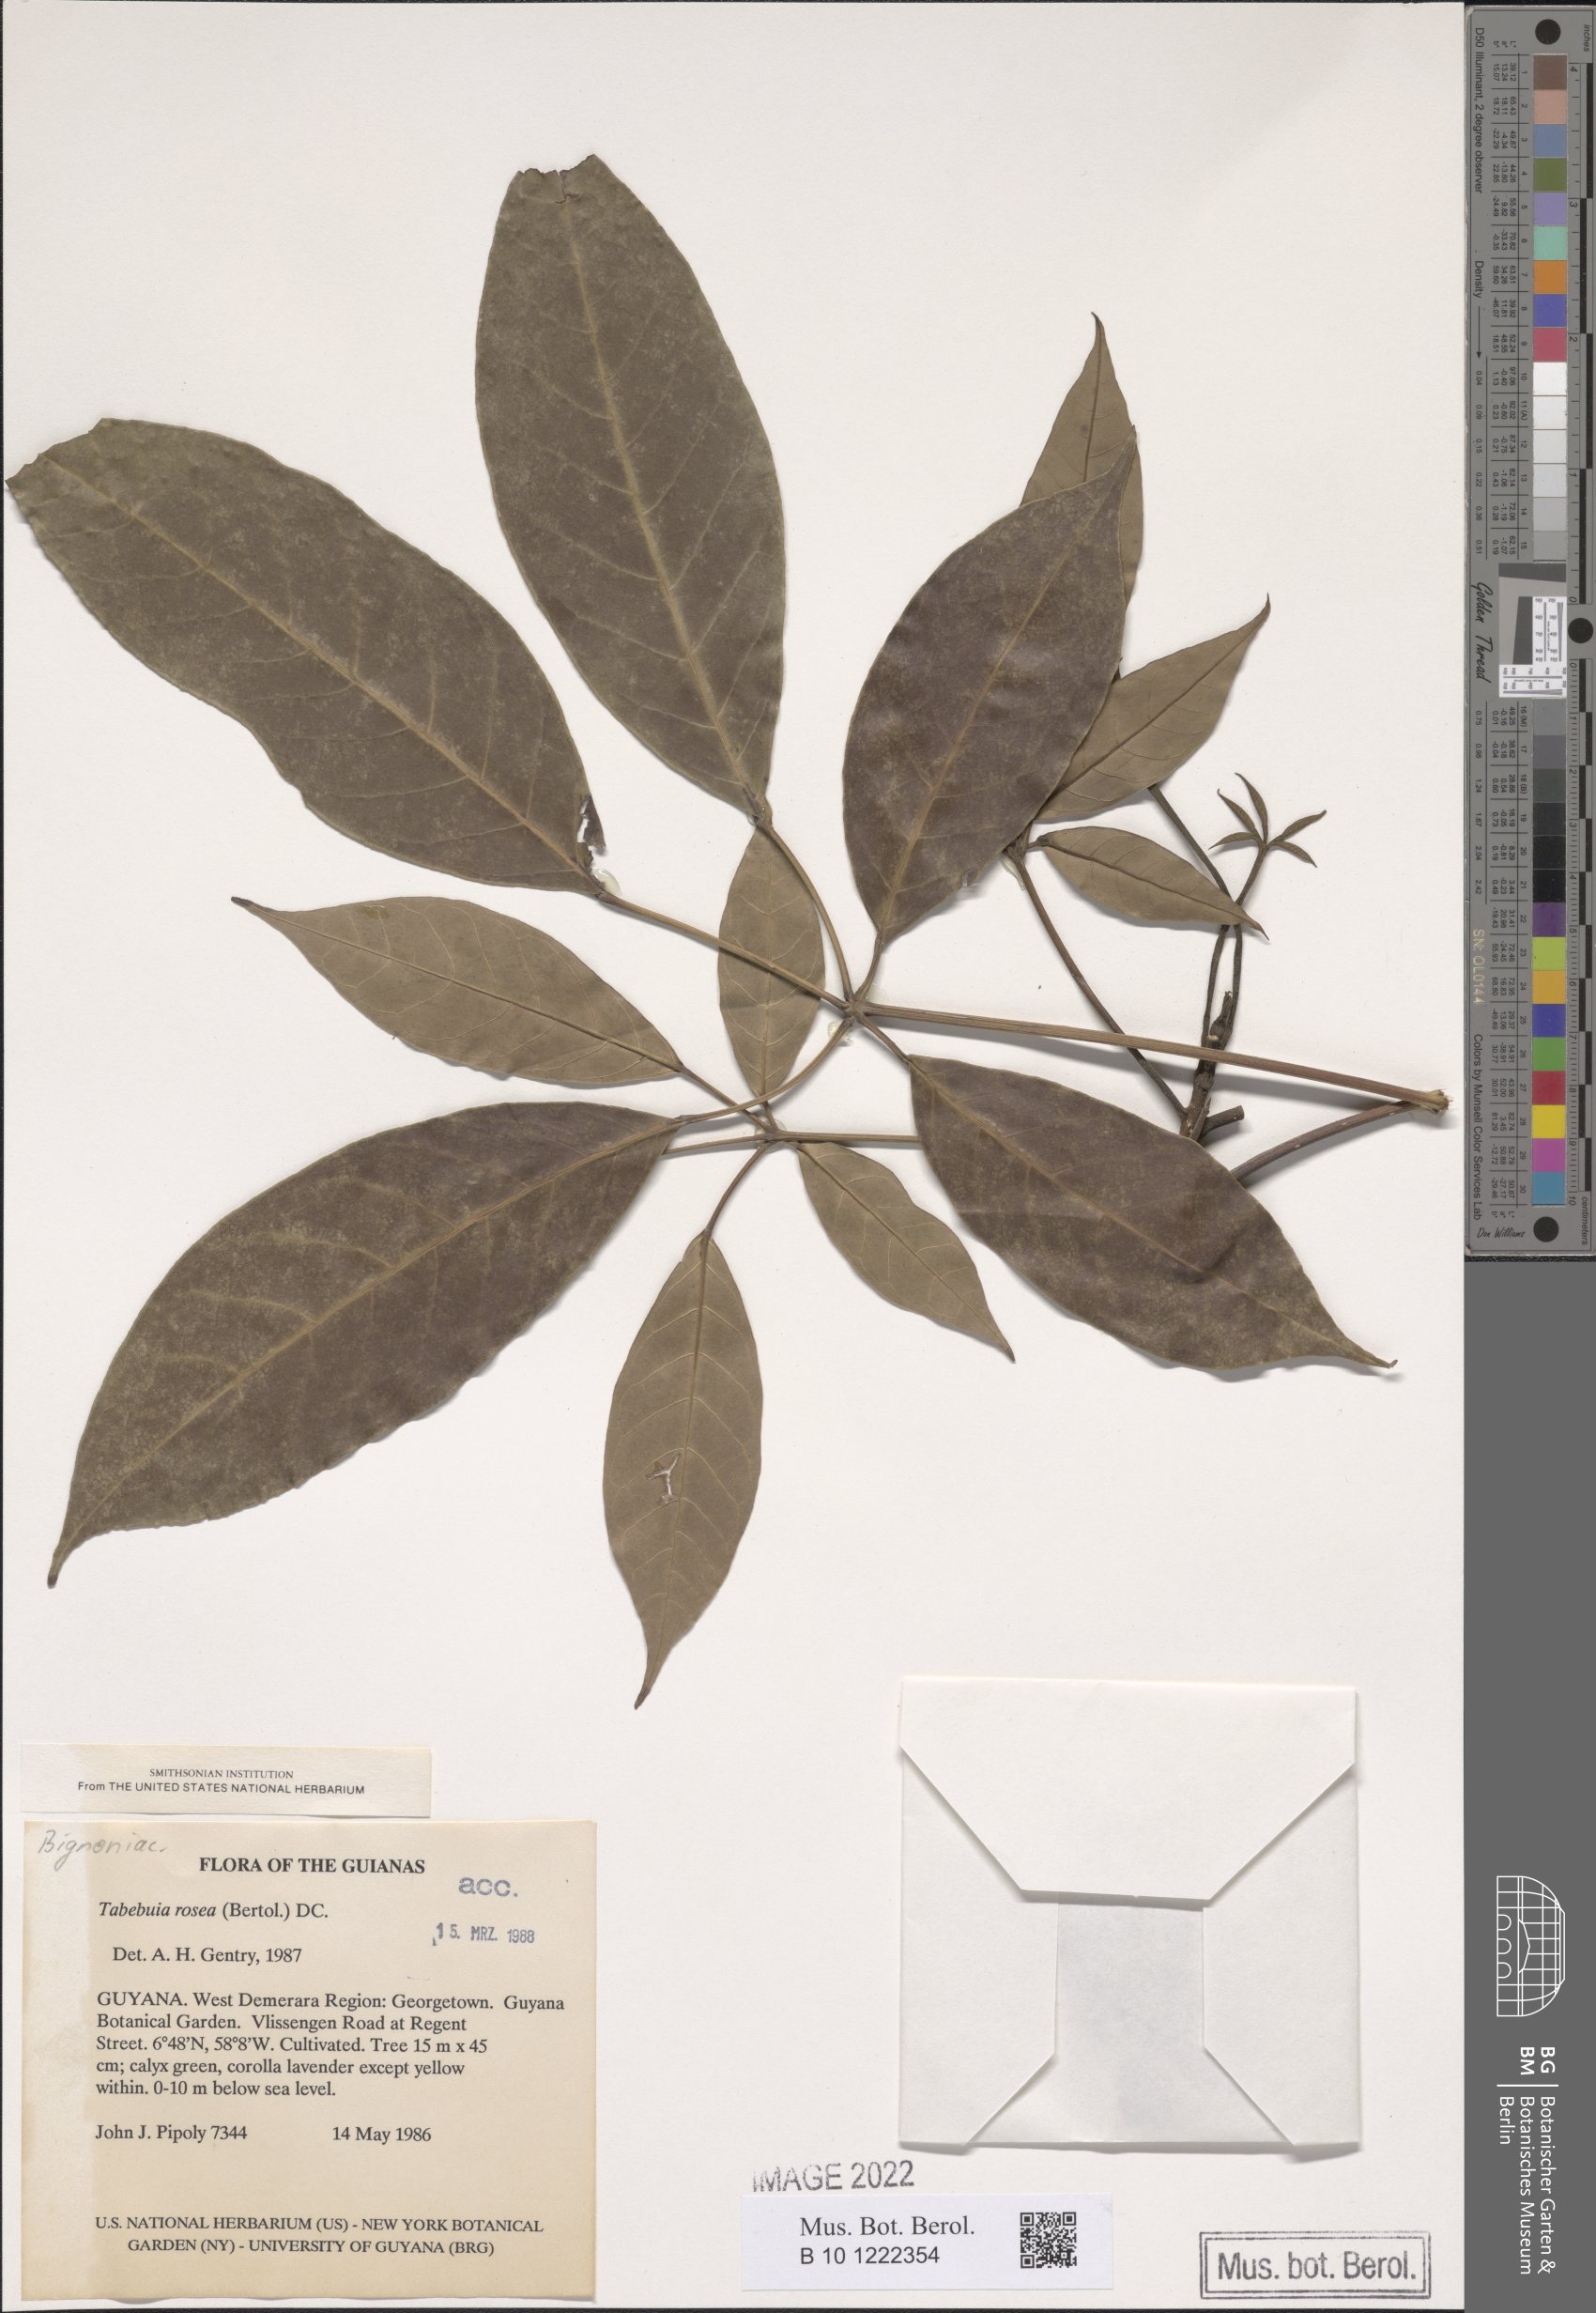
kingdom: Plantae
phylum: Tracheophyta
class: Magnoliopsida
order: Lamiales
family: Bignoniaceae
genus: Tabebuia
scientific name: Tabebuia rosea
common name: Pink poui
